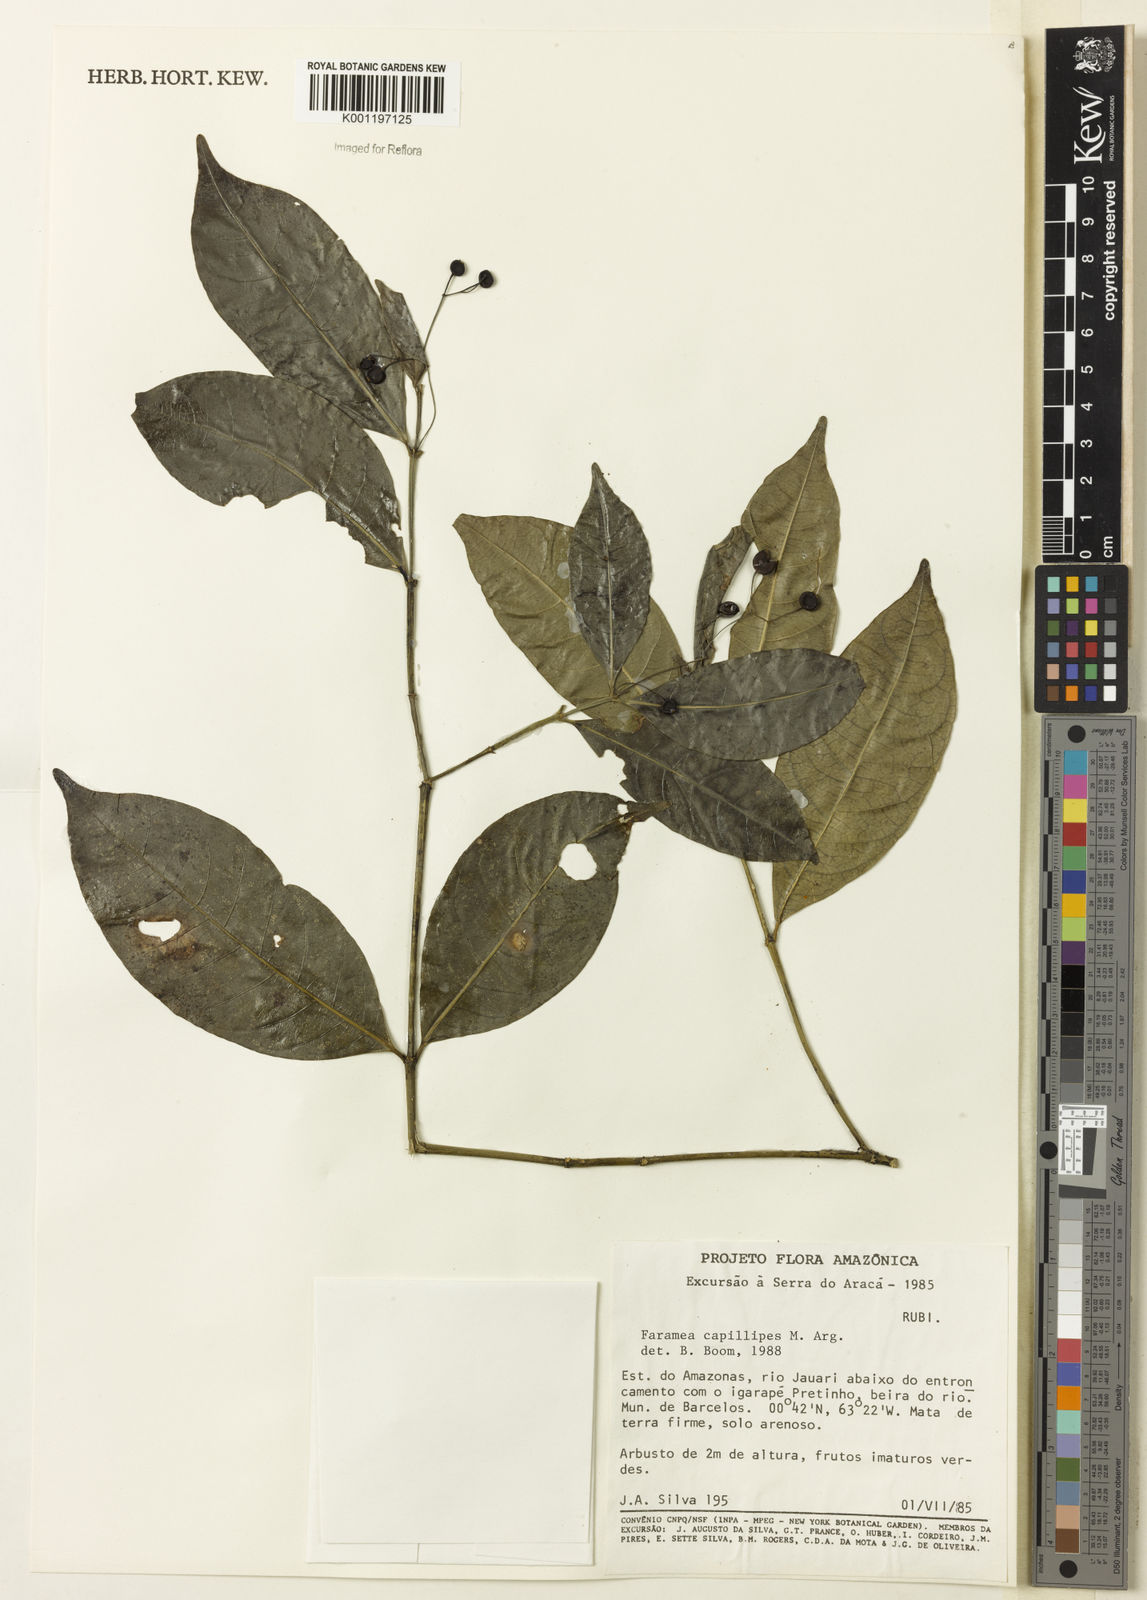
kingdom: Plantae
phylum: Tracheophyta
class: Magnoliopsida
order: Gentianales
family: Rubiaceae
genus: Faramea
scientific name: Faramea
